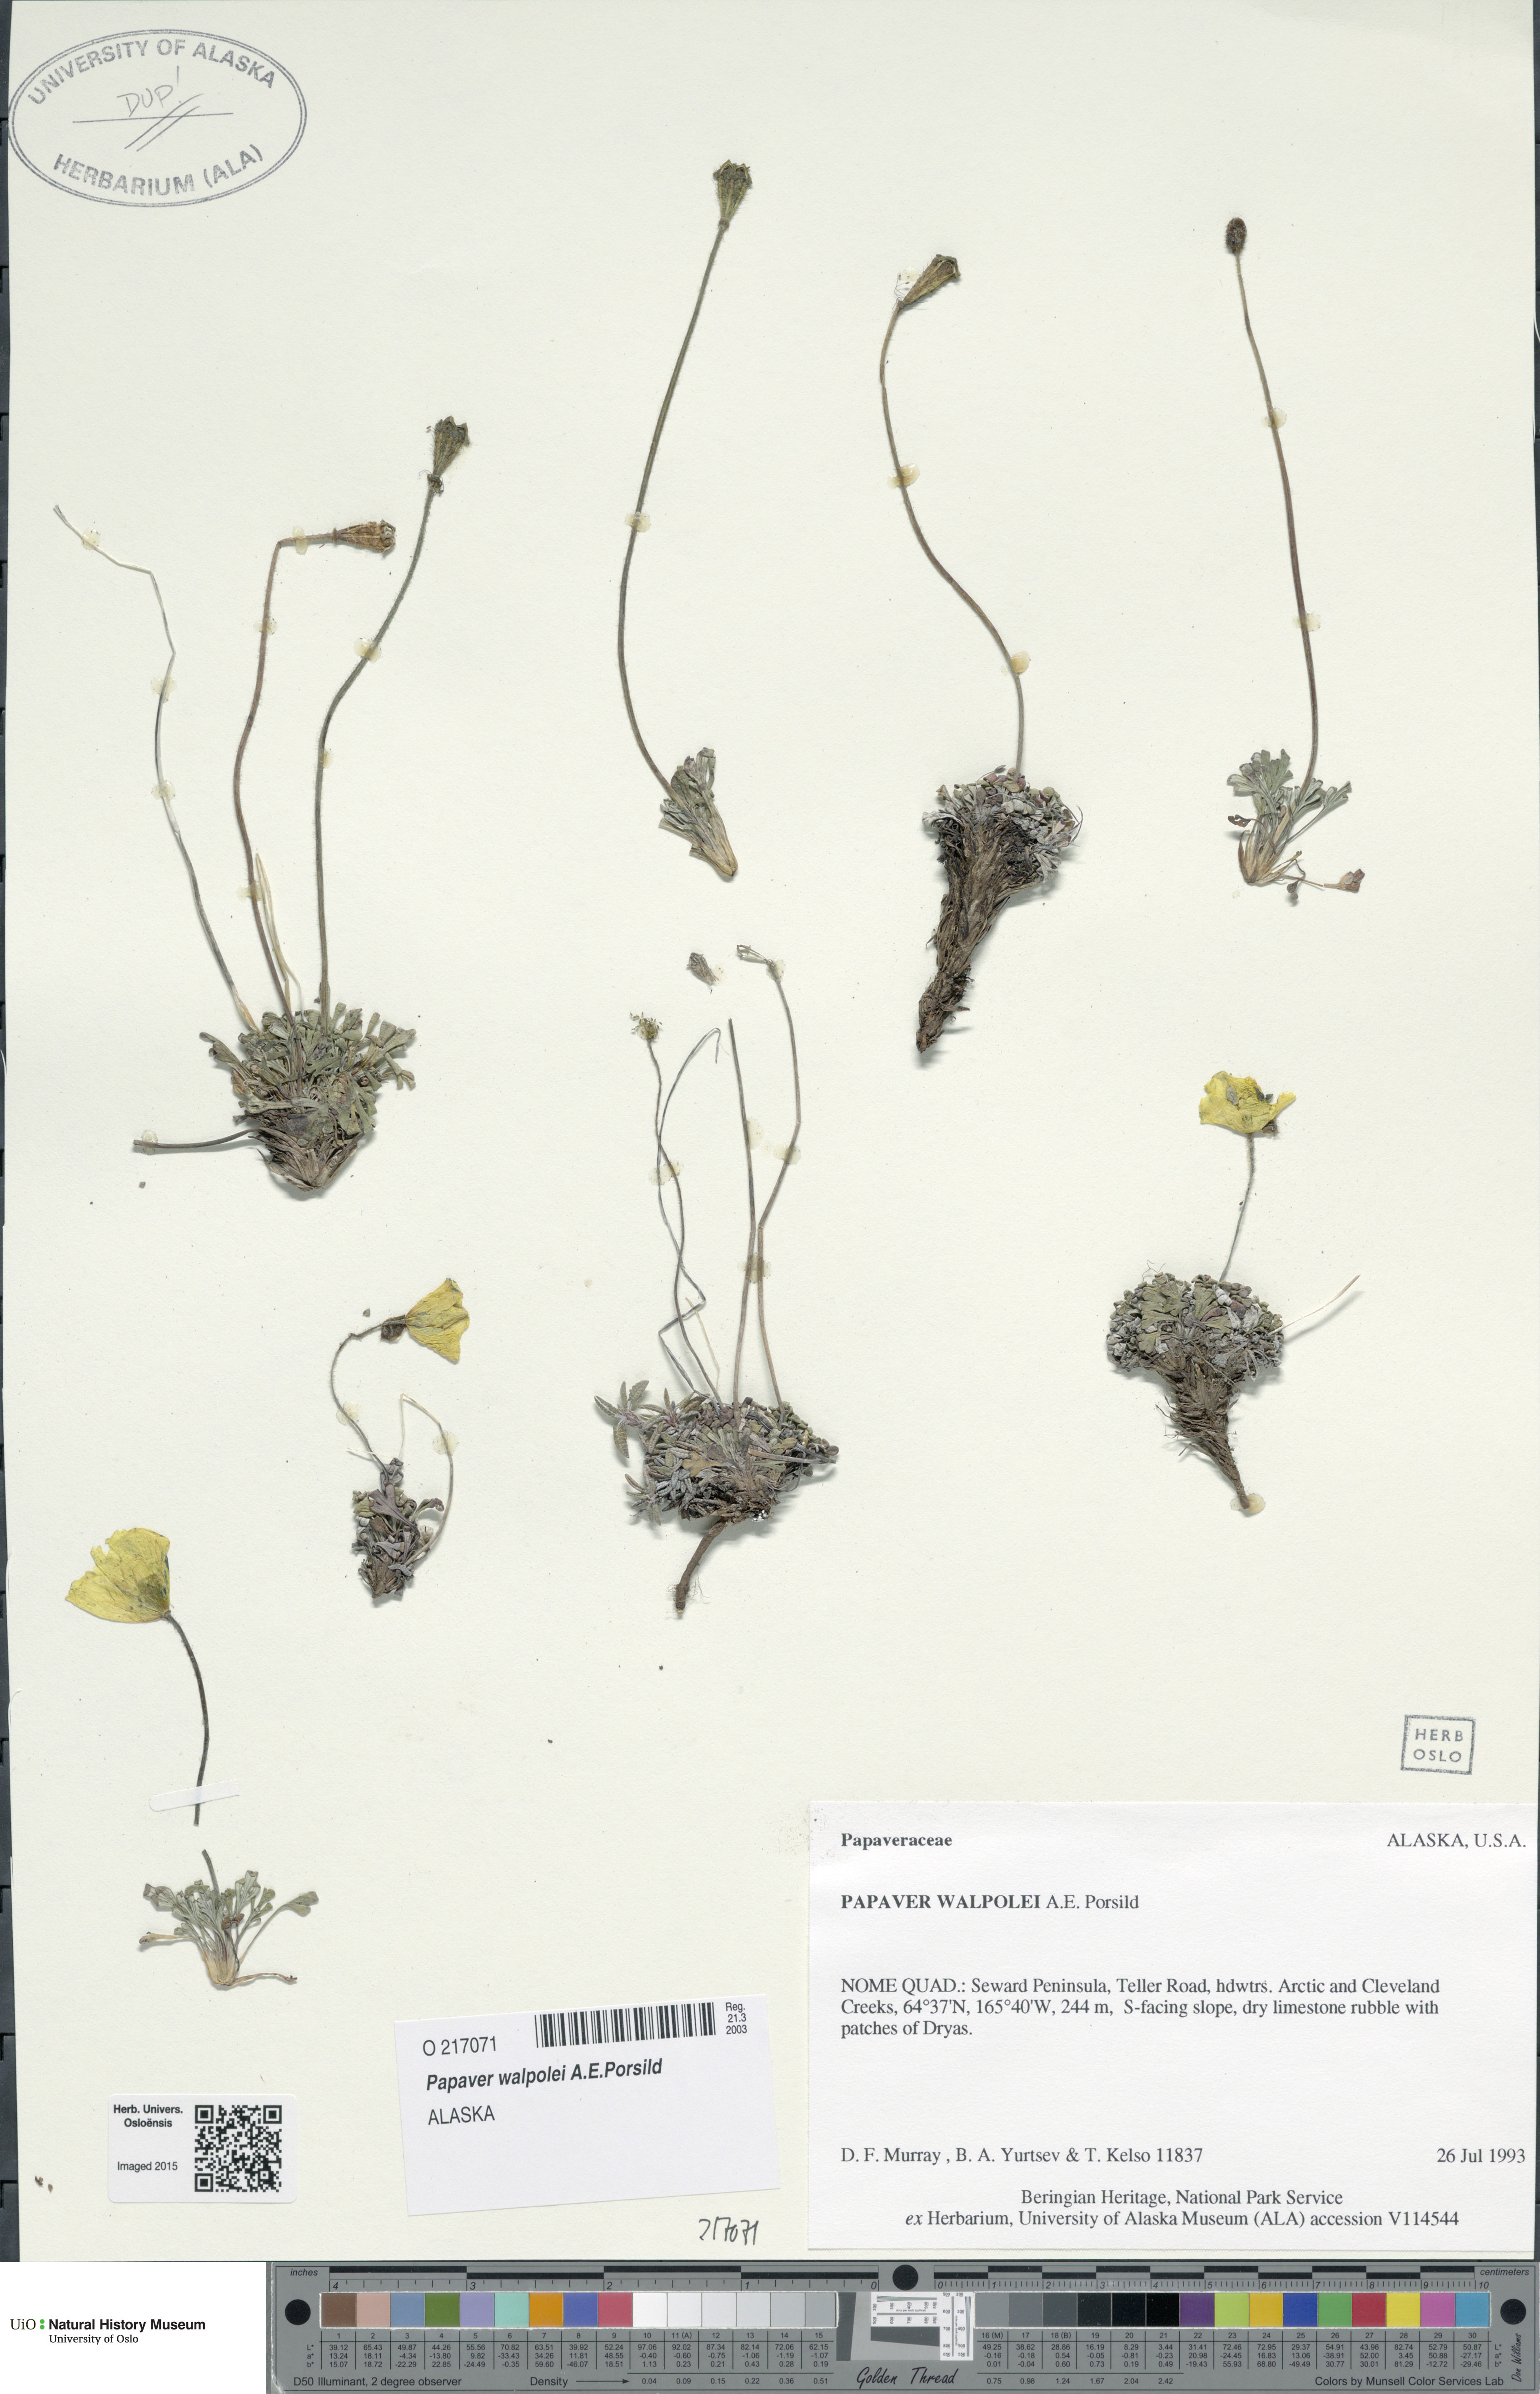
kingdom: Plantae
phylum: Tracheophyta
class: Magnoliopsida
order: Ranunculales
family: Papaveraceae
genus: Papaver
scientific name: Papaver walpolei
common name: Walpole's poppy
